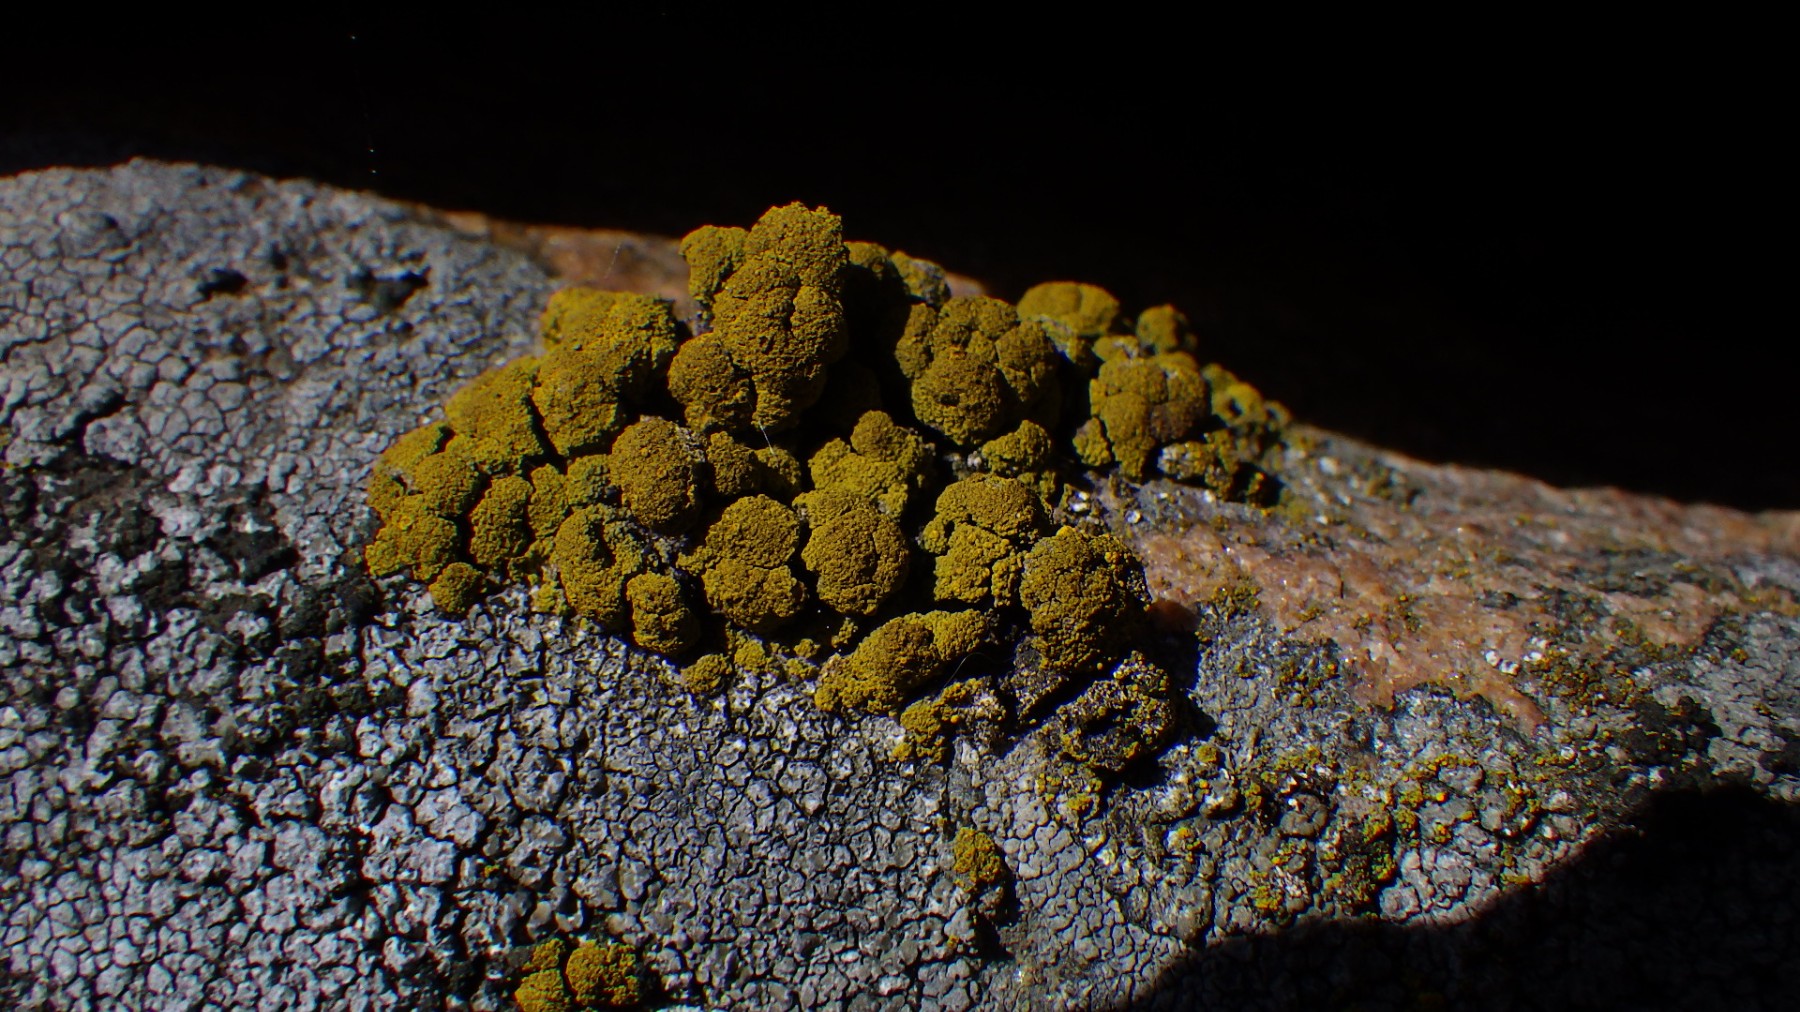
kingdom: Fungi
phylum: Ascomycota
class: Candelariomycetes
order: Candelariales
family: Candelariaceae
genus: Candelariella
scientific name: Candelariella coralliza
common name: pude-æggeblommelav
